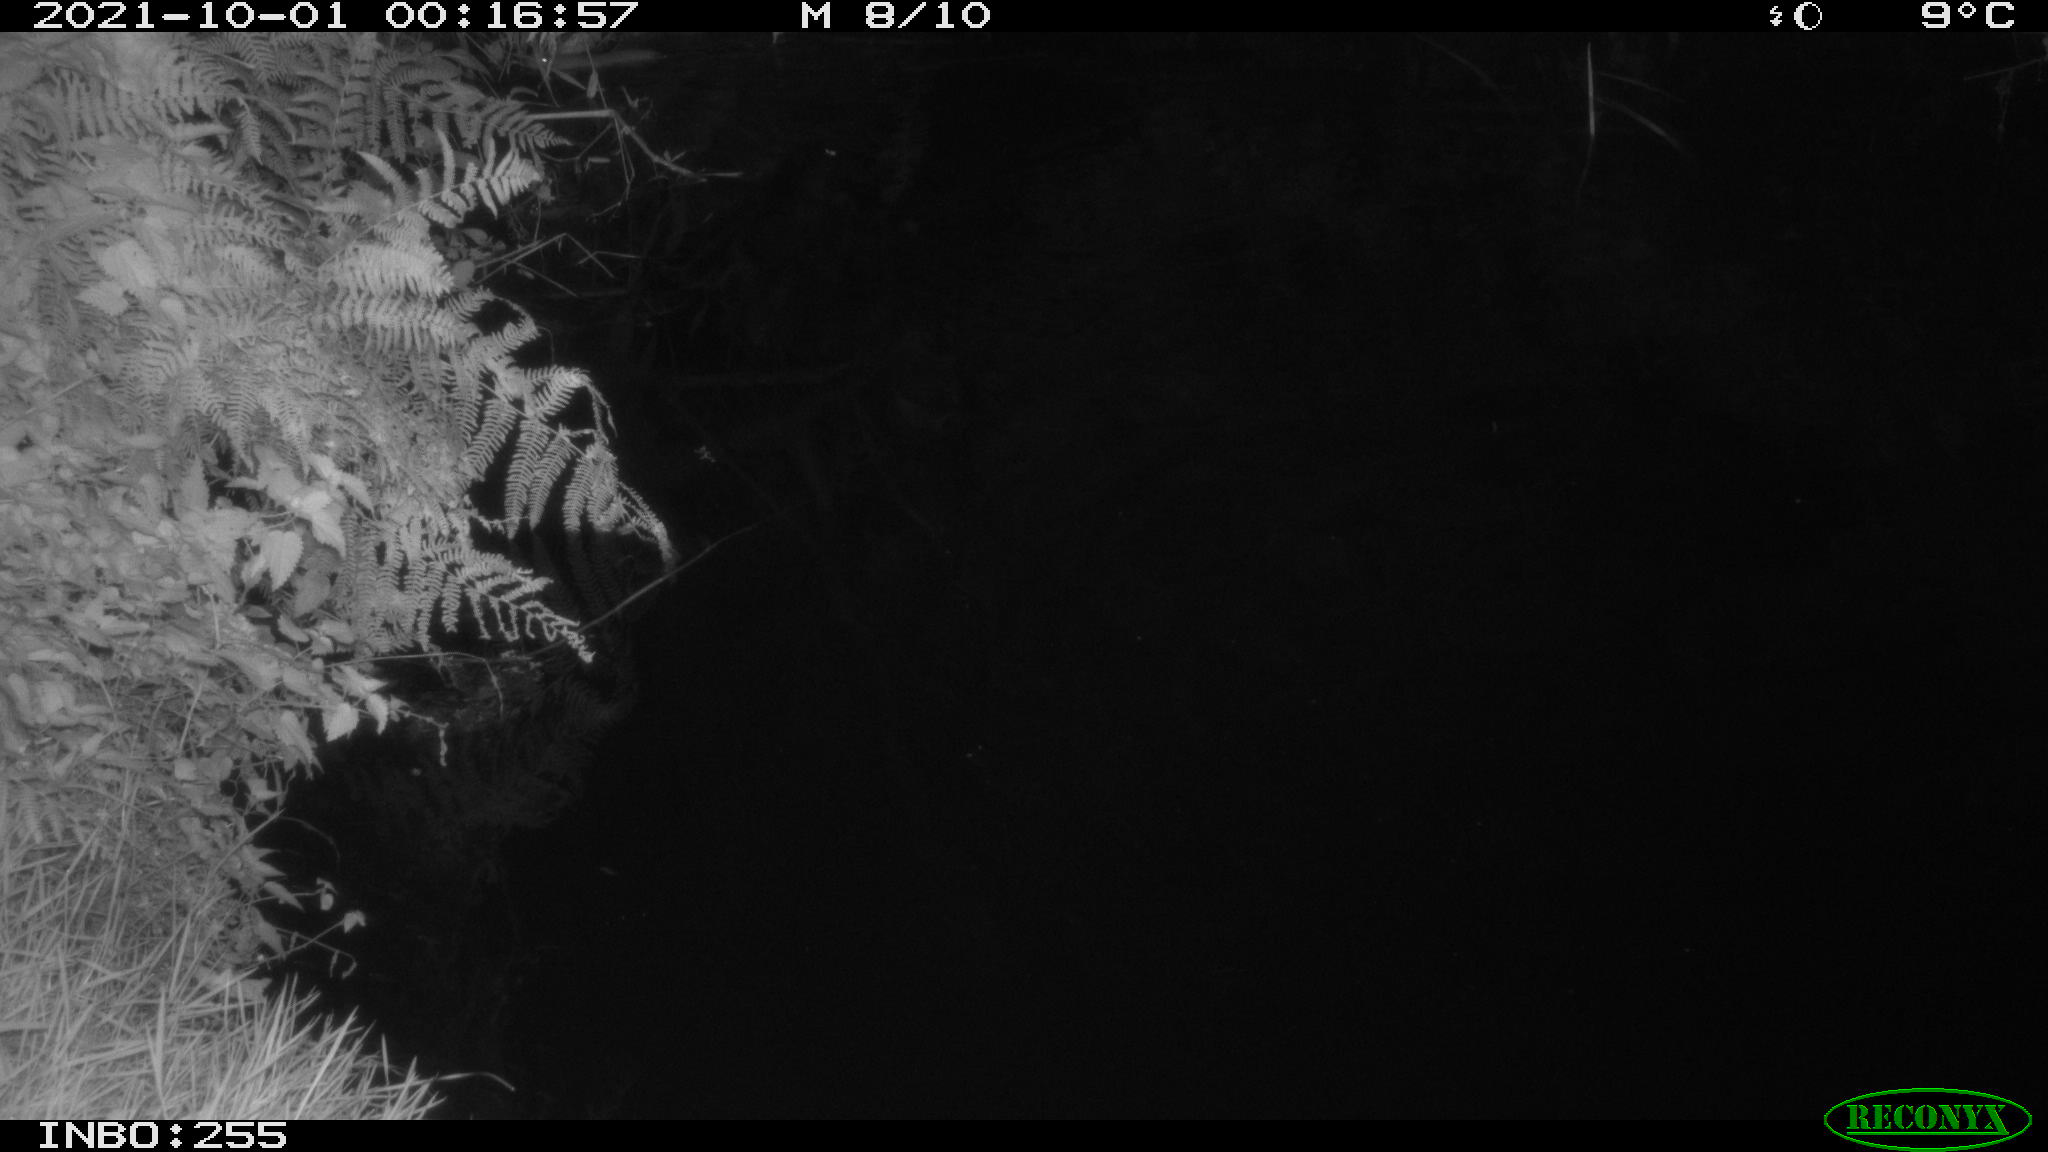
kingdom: Animalia
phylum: Chordata
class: Mammalia
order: Rodentia
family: Muridae
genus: Rattus
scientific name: Rattus norvegicus
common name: Brown rat
